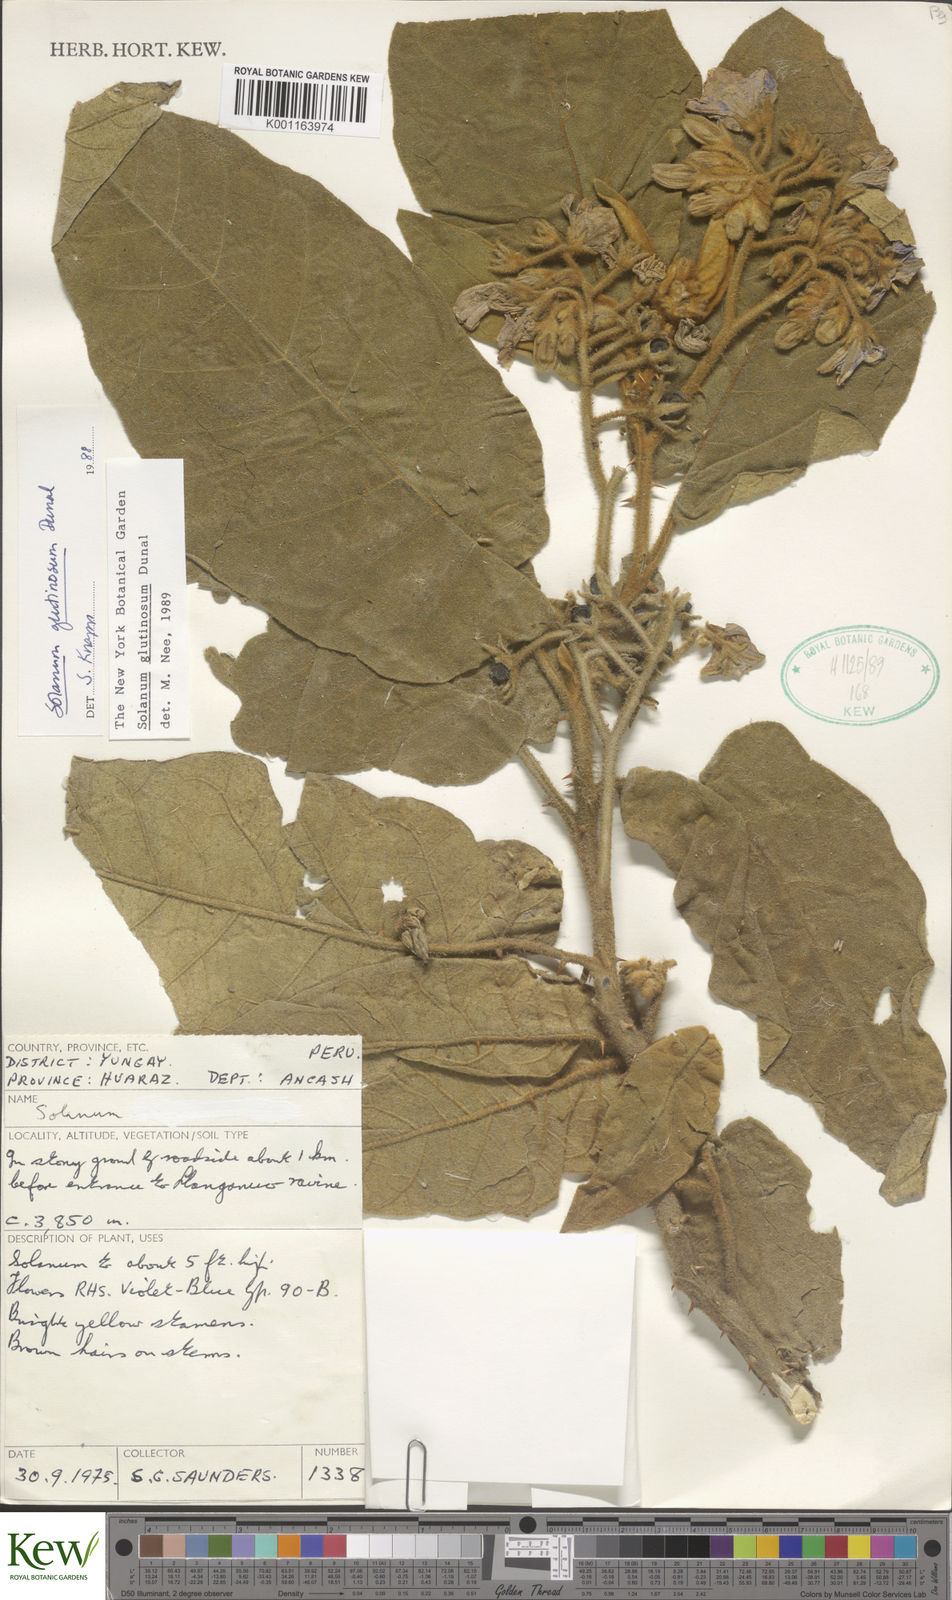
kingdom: Plantae
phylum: Tracheophyta
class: Magnoliopsida
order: Solanales
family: Solanaceae
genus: Solanum
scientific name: Solanum glutinosum
